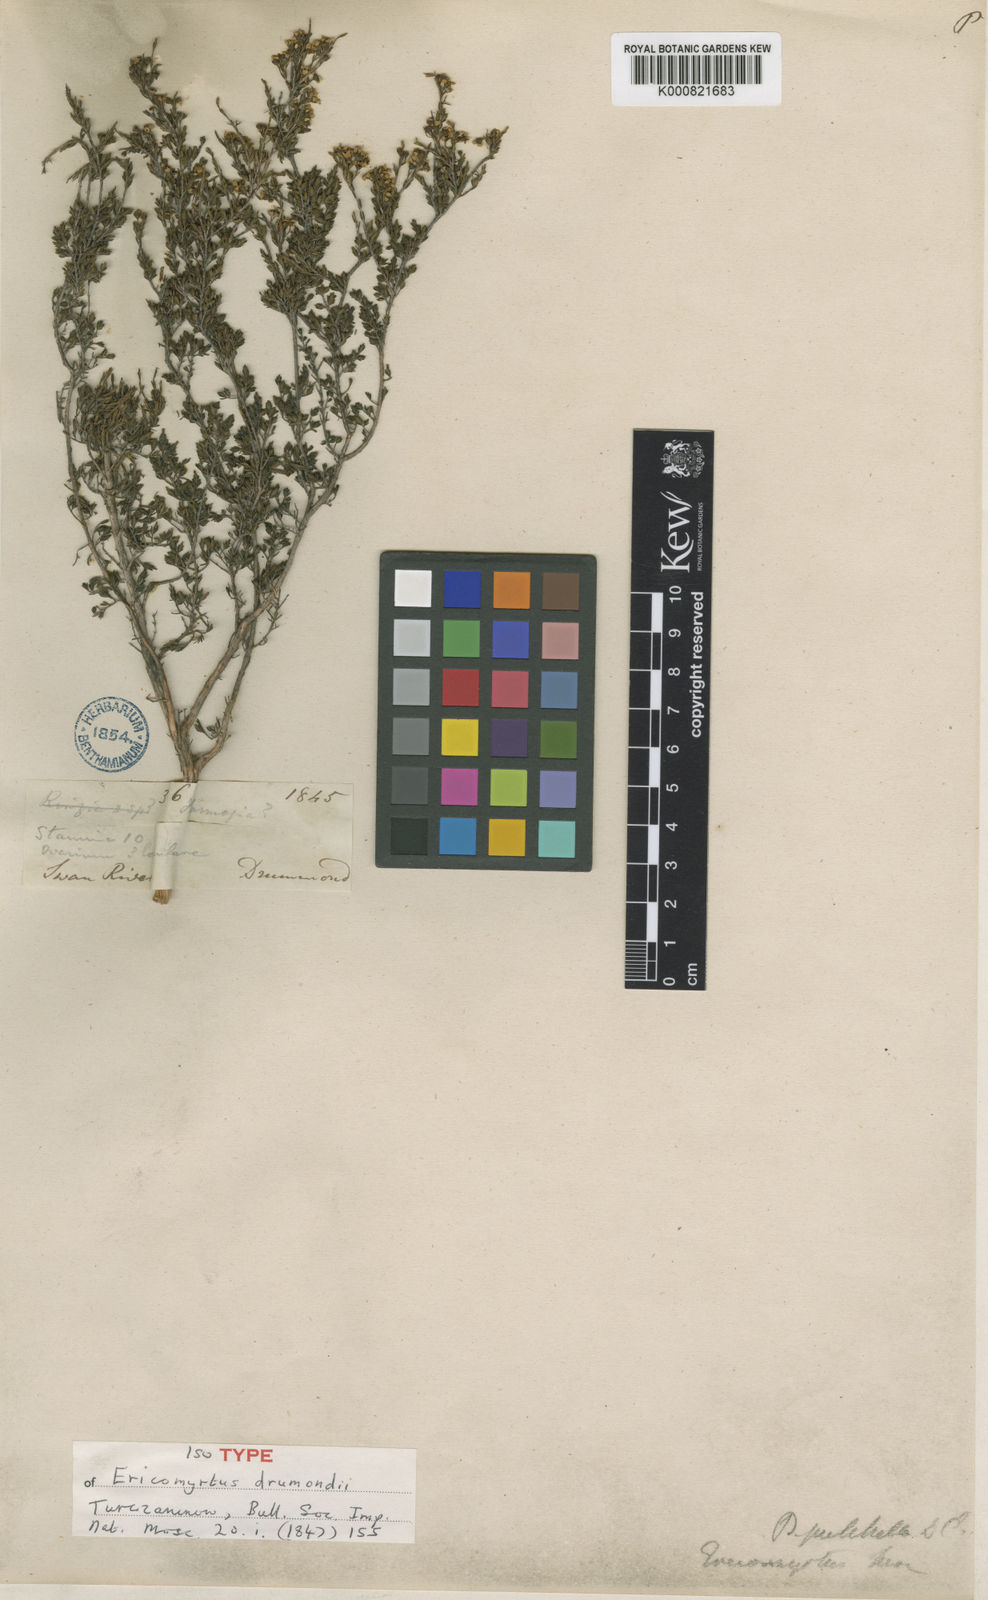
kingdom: Plantae
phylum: Tracheophyta
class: Magnoliopsida
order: Myrtales
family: Myrtaceae
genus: Astartea
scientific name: Astartea pulchella
